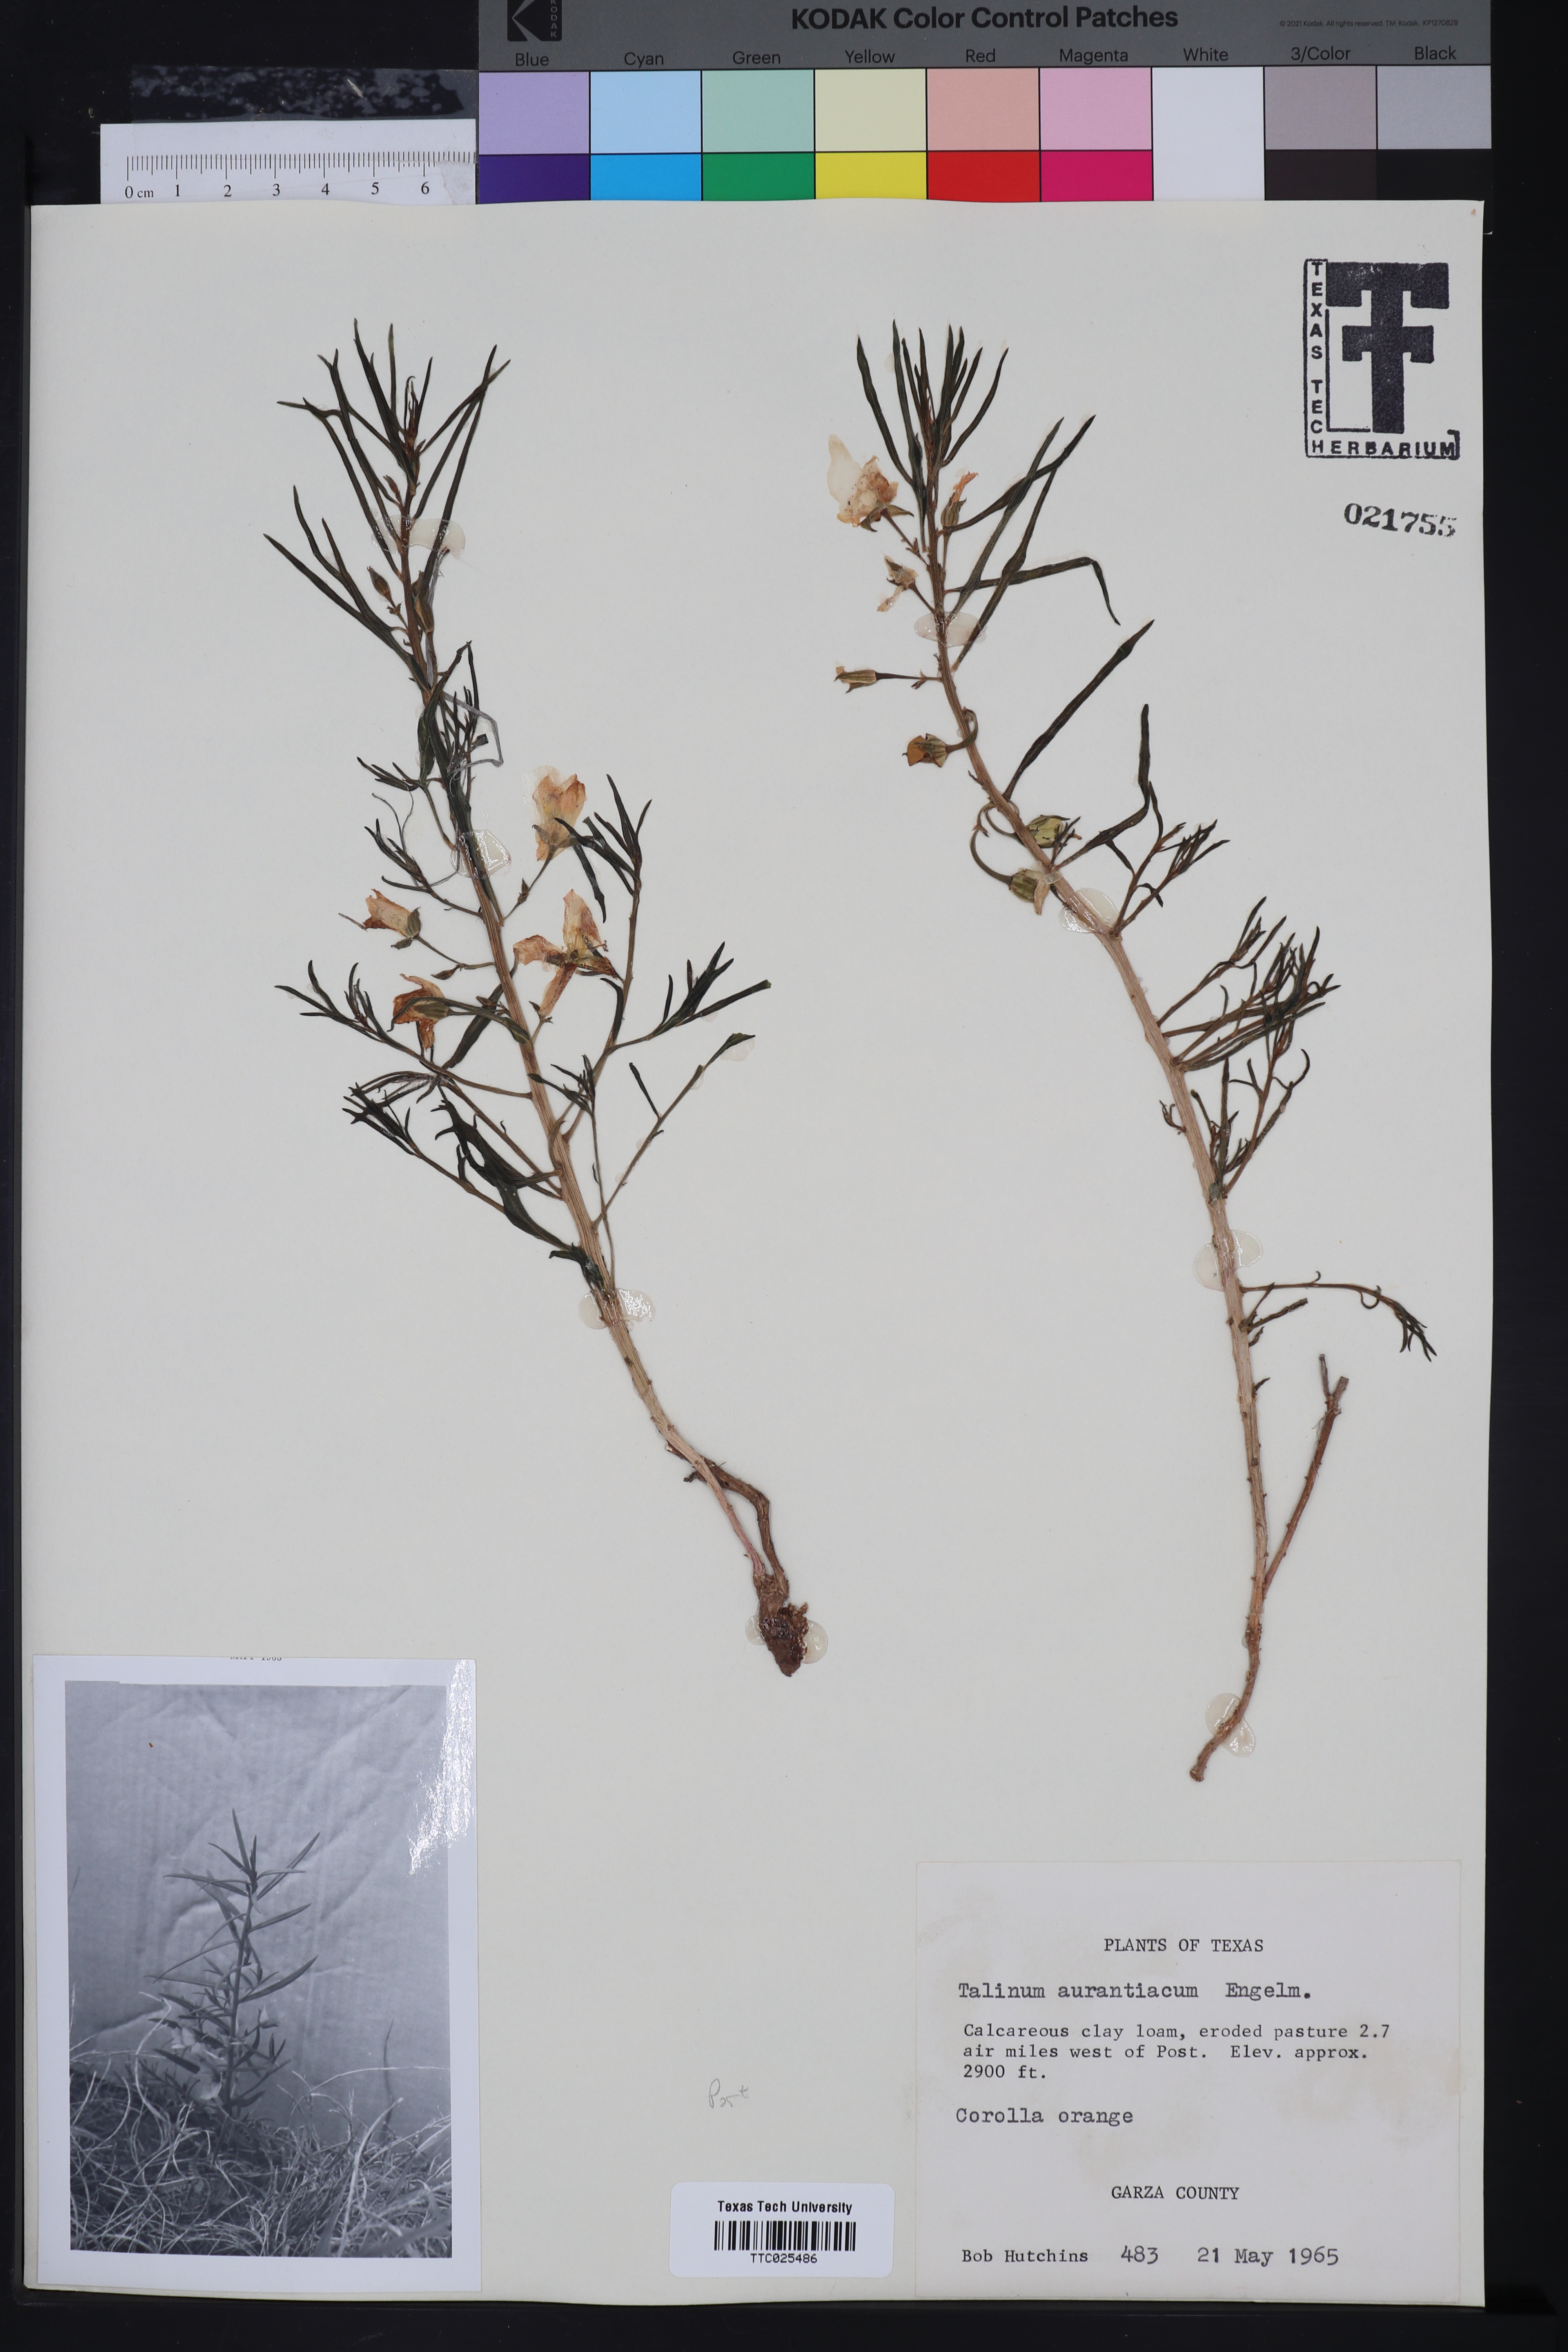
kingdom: Plantae
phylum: Tracheophyta
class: Magnoliopsida
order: Caryophyllales
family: Montiaceae
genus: Phemeranthus
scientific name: Phemeranthus aurantiacus
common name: Orange fameflower
